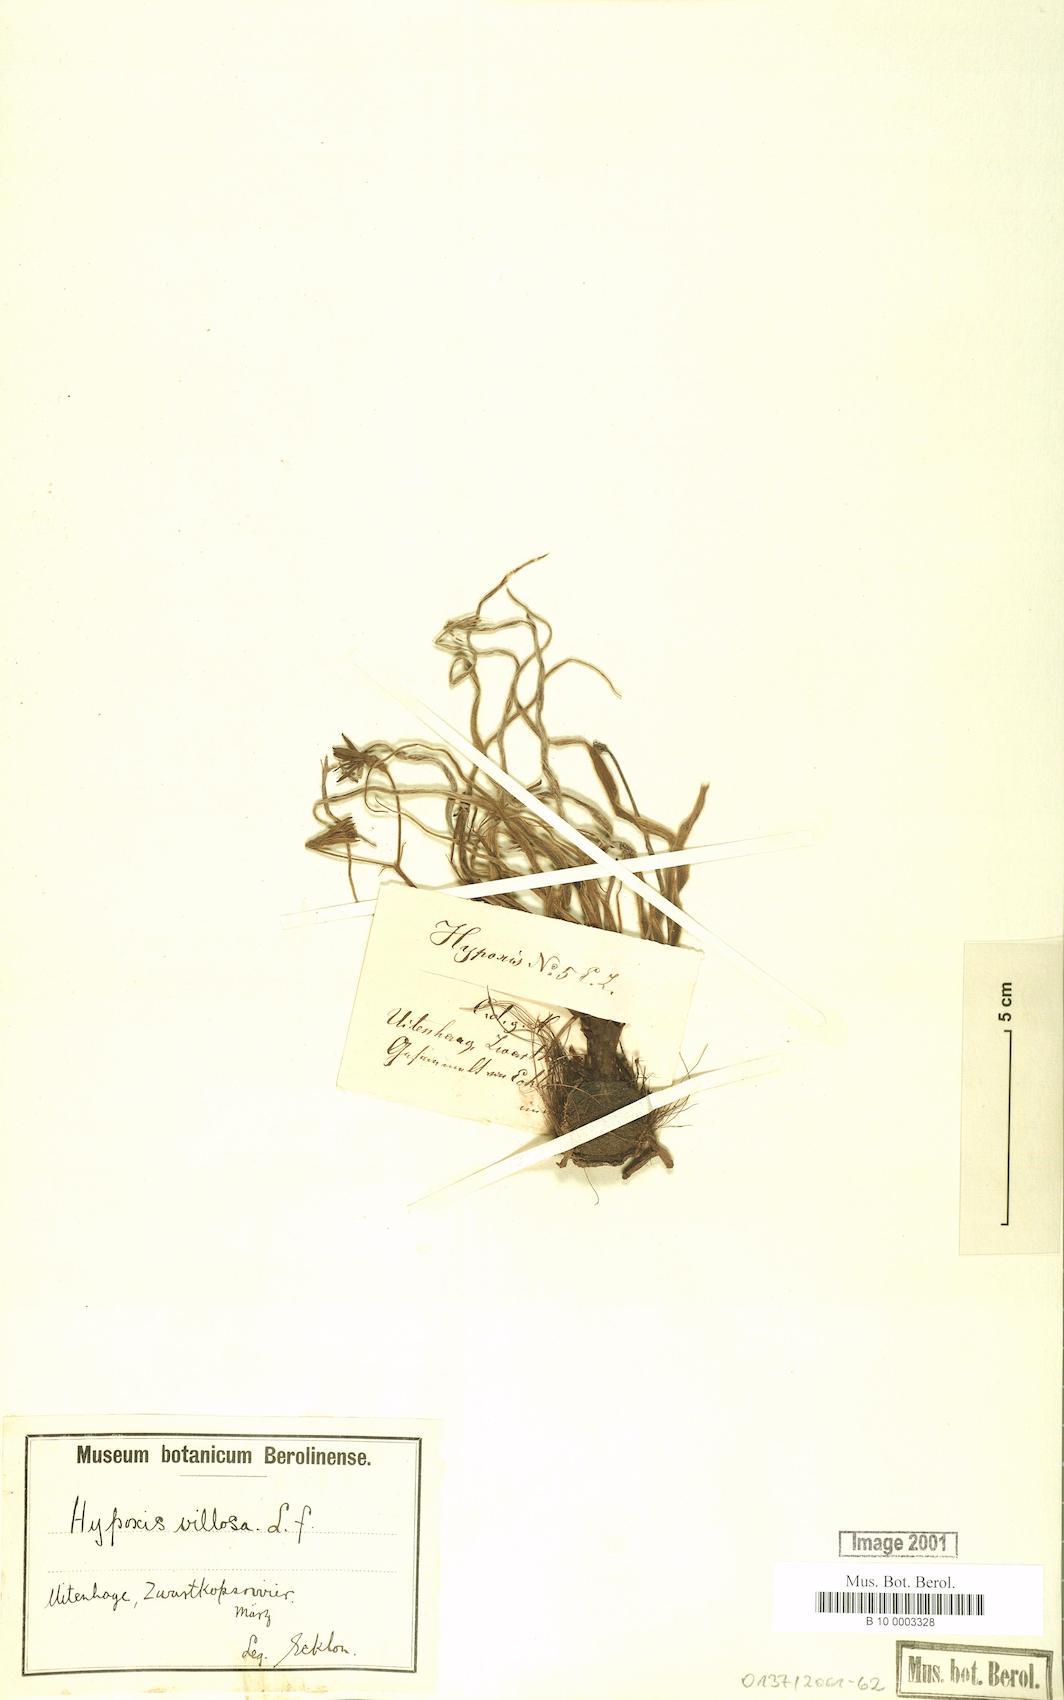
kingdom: Plantae
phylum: Tracheophyta
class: Liliopsida
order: Asparagales
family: Hypoxidaceae
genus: Hypoxis
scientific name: Hypoxis villosa
